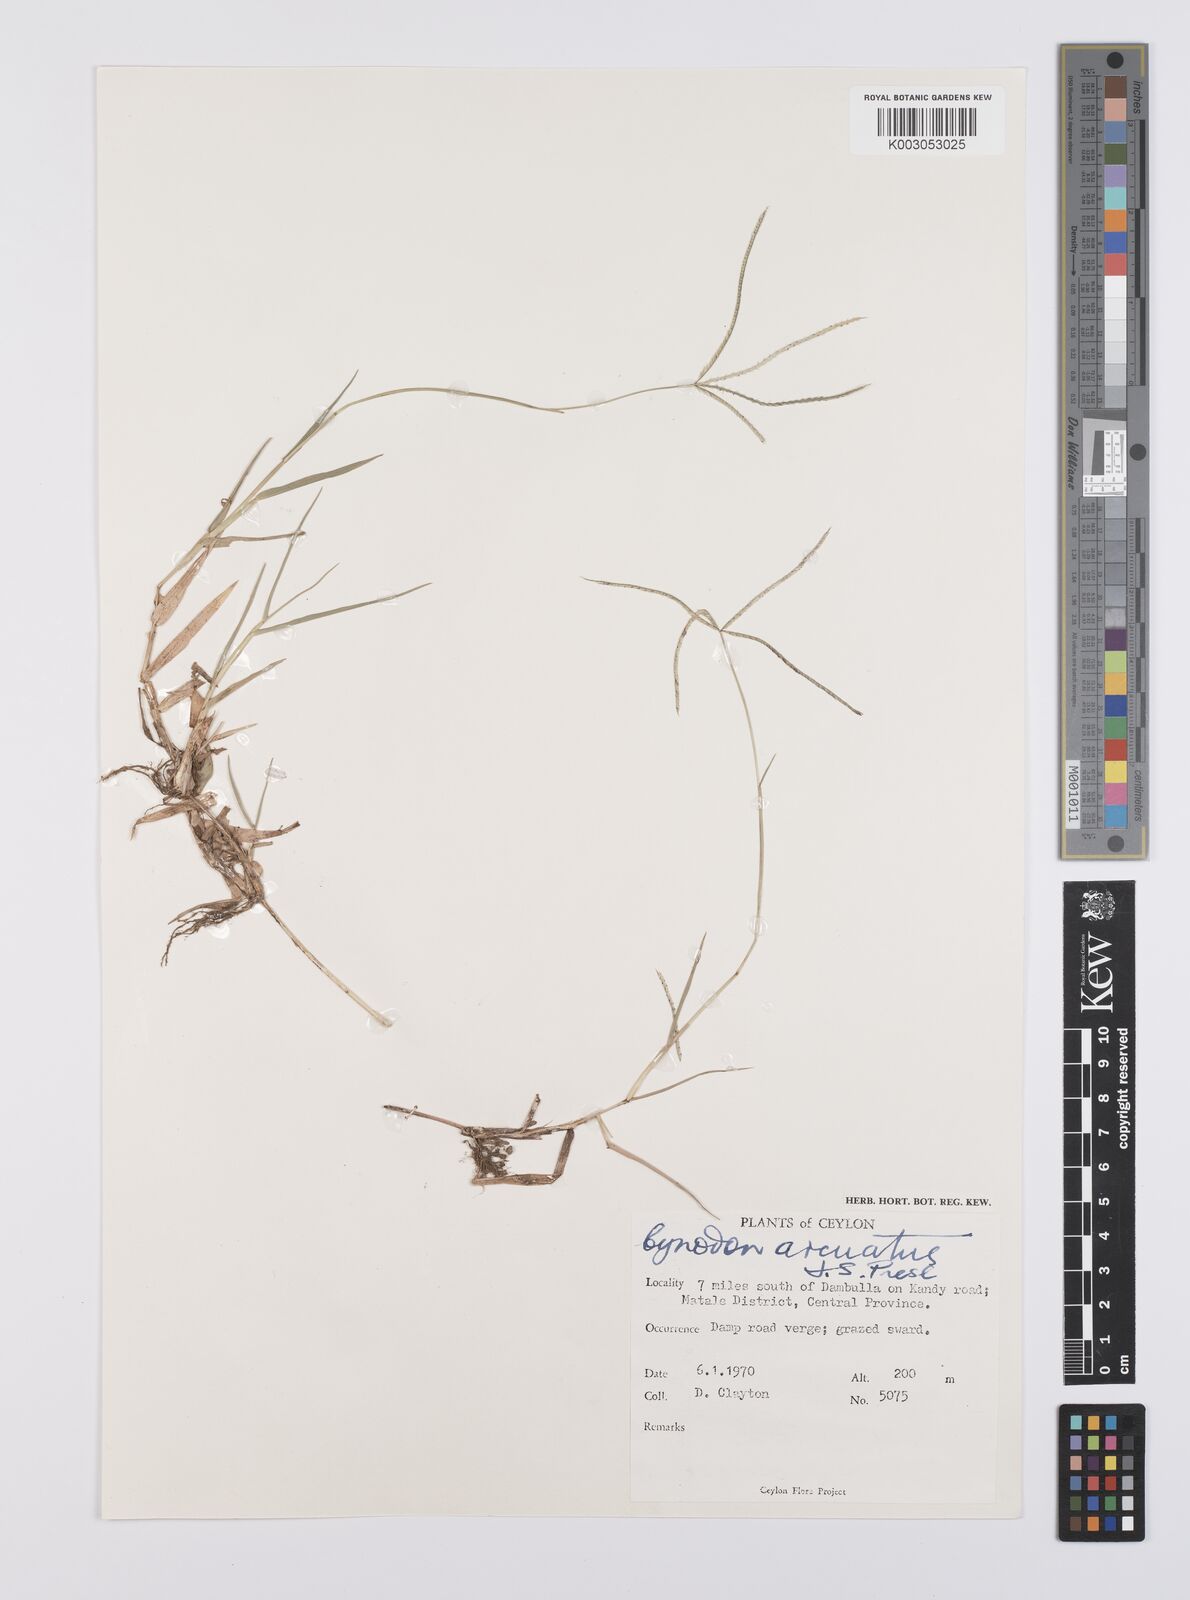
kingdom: Plantae
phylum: Tracheophyta
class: Liliopsida
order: Poales
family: Poaceae
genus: Cynodon
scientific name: Cynodon radiatus
